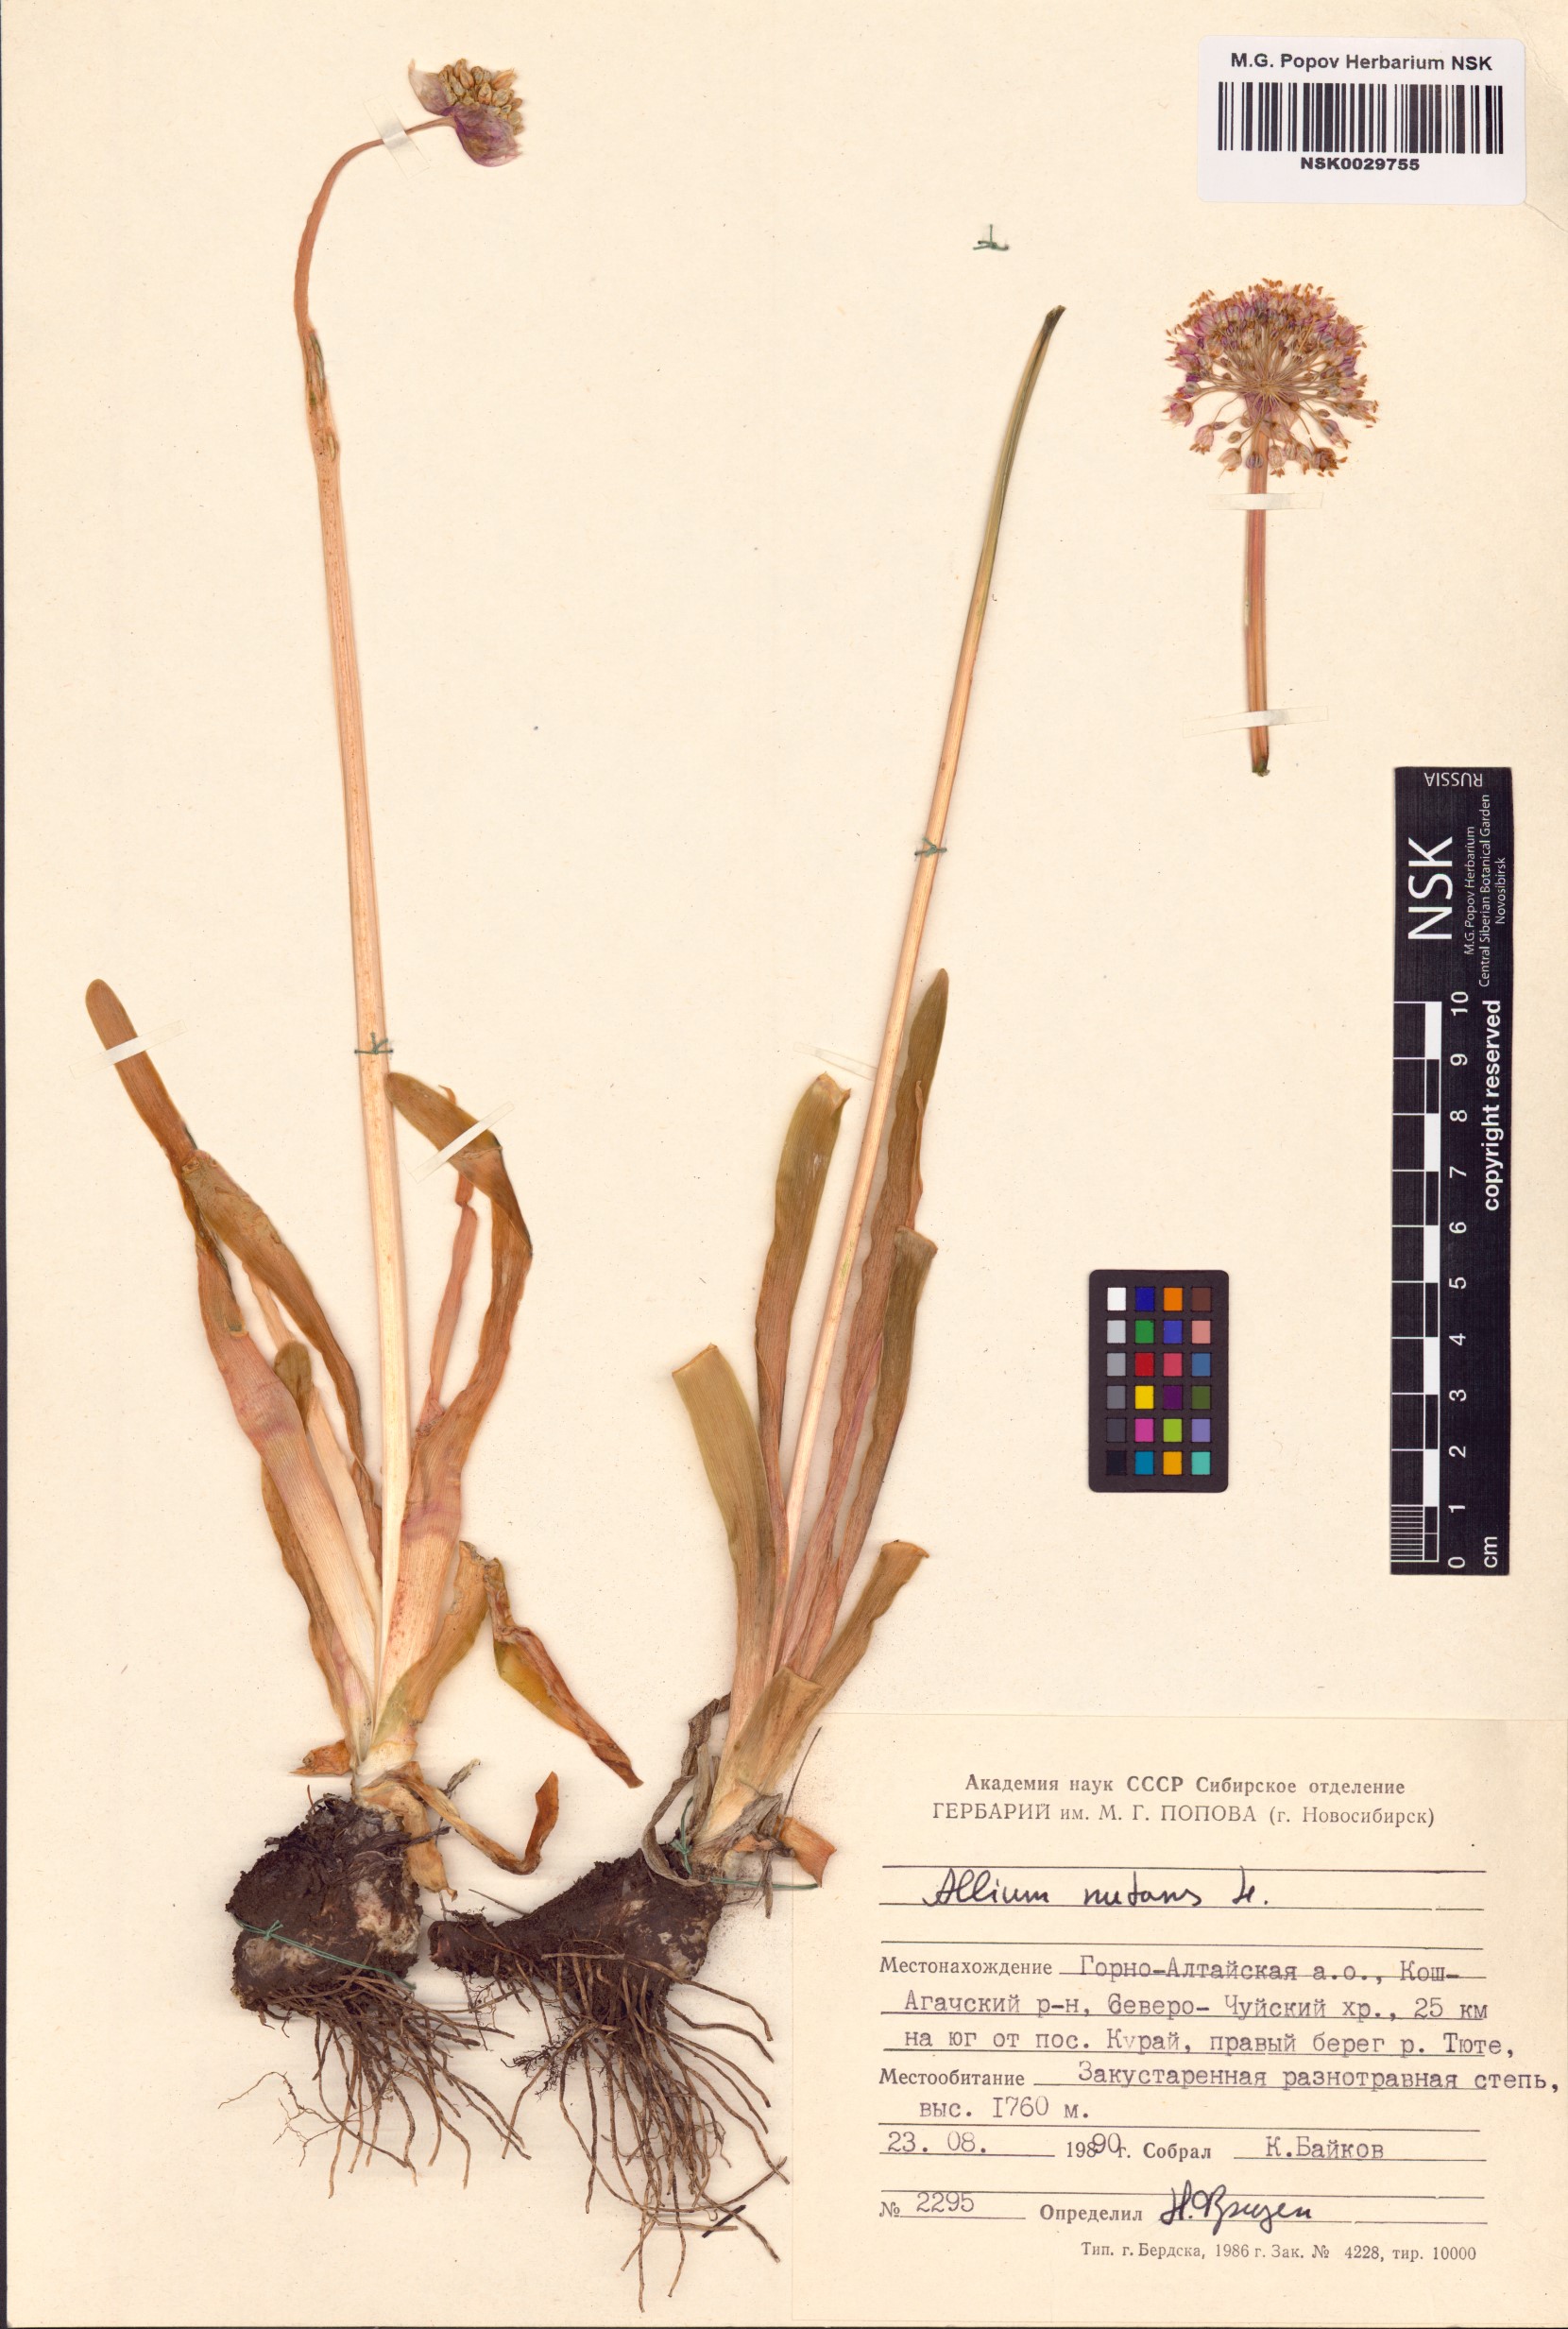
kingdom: Plantae
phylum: Tracheophyta
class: Liliopsida
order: Asparagales
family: Amaryllidaceae
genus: Allium
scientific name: Allium nutans
